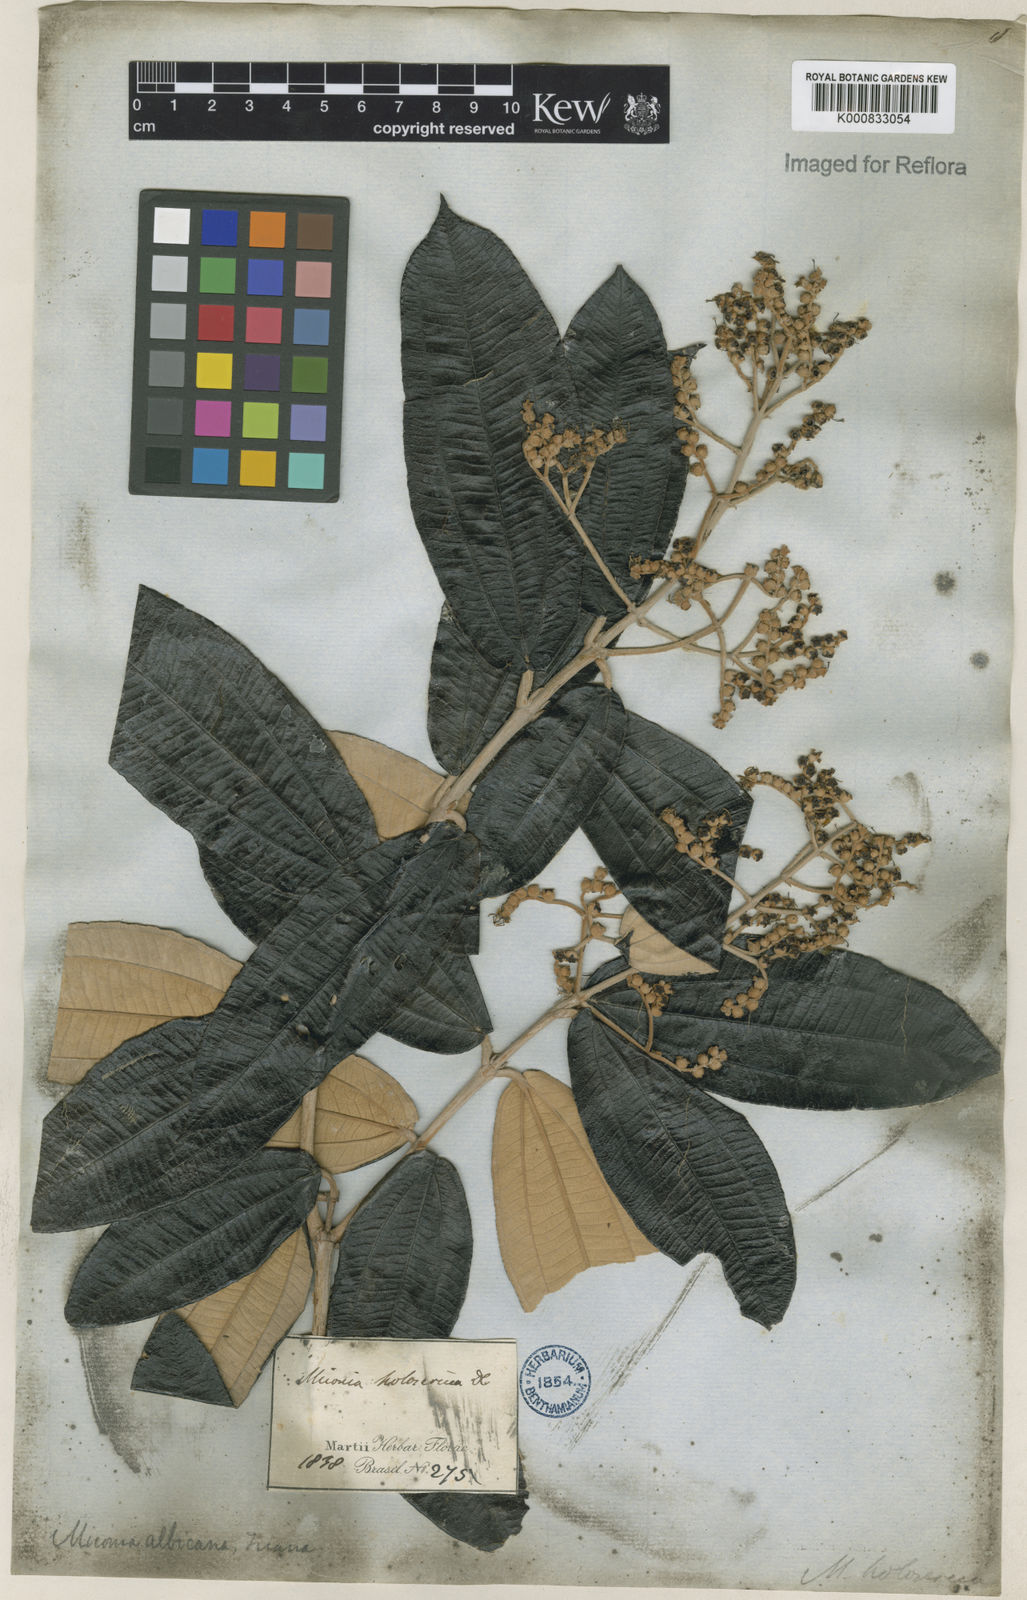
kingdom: Plantae
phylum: Tracheophyta
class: Magnoliopsida
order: Myrtales
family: Melastomataceae
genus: Miconia
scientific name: Miconia albicans
